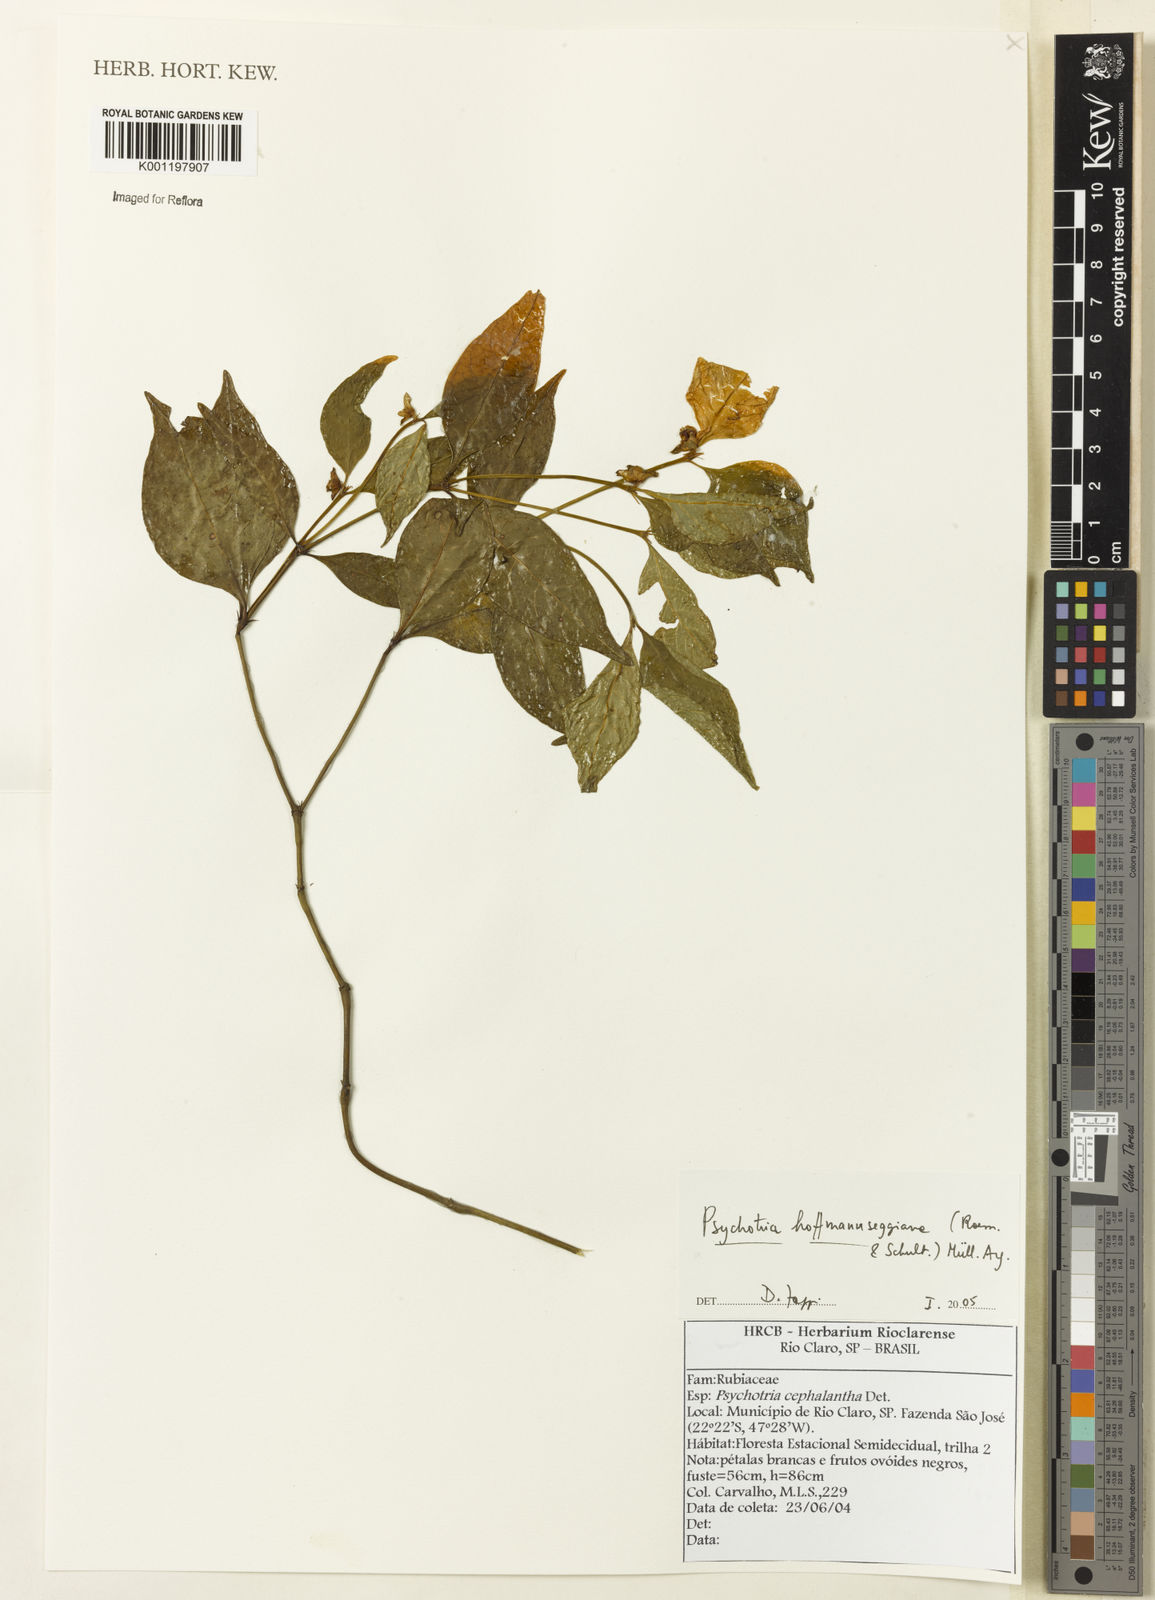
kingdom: Plantae
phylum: Tracheophyta
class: Magnoliopsida
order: Gentianales
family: Rubiaceae
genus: Psychotria
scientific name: Psychotria
